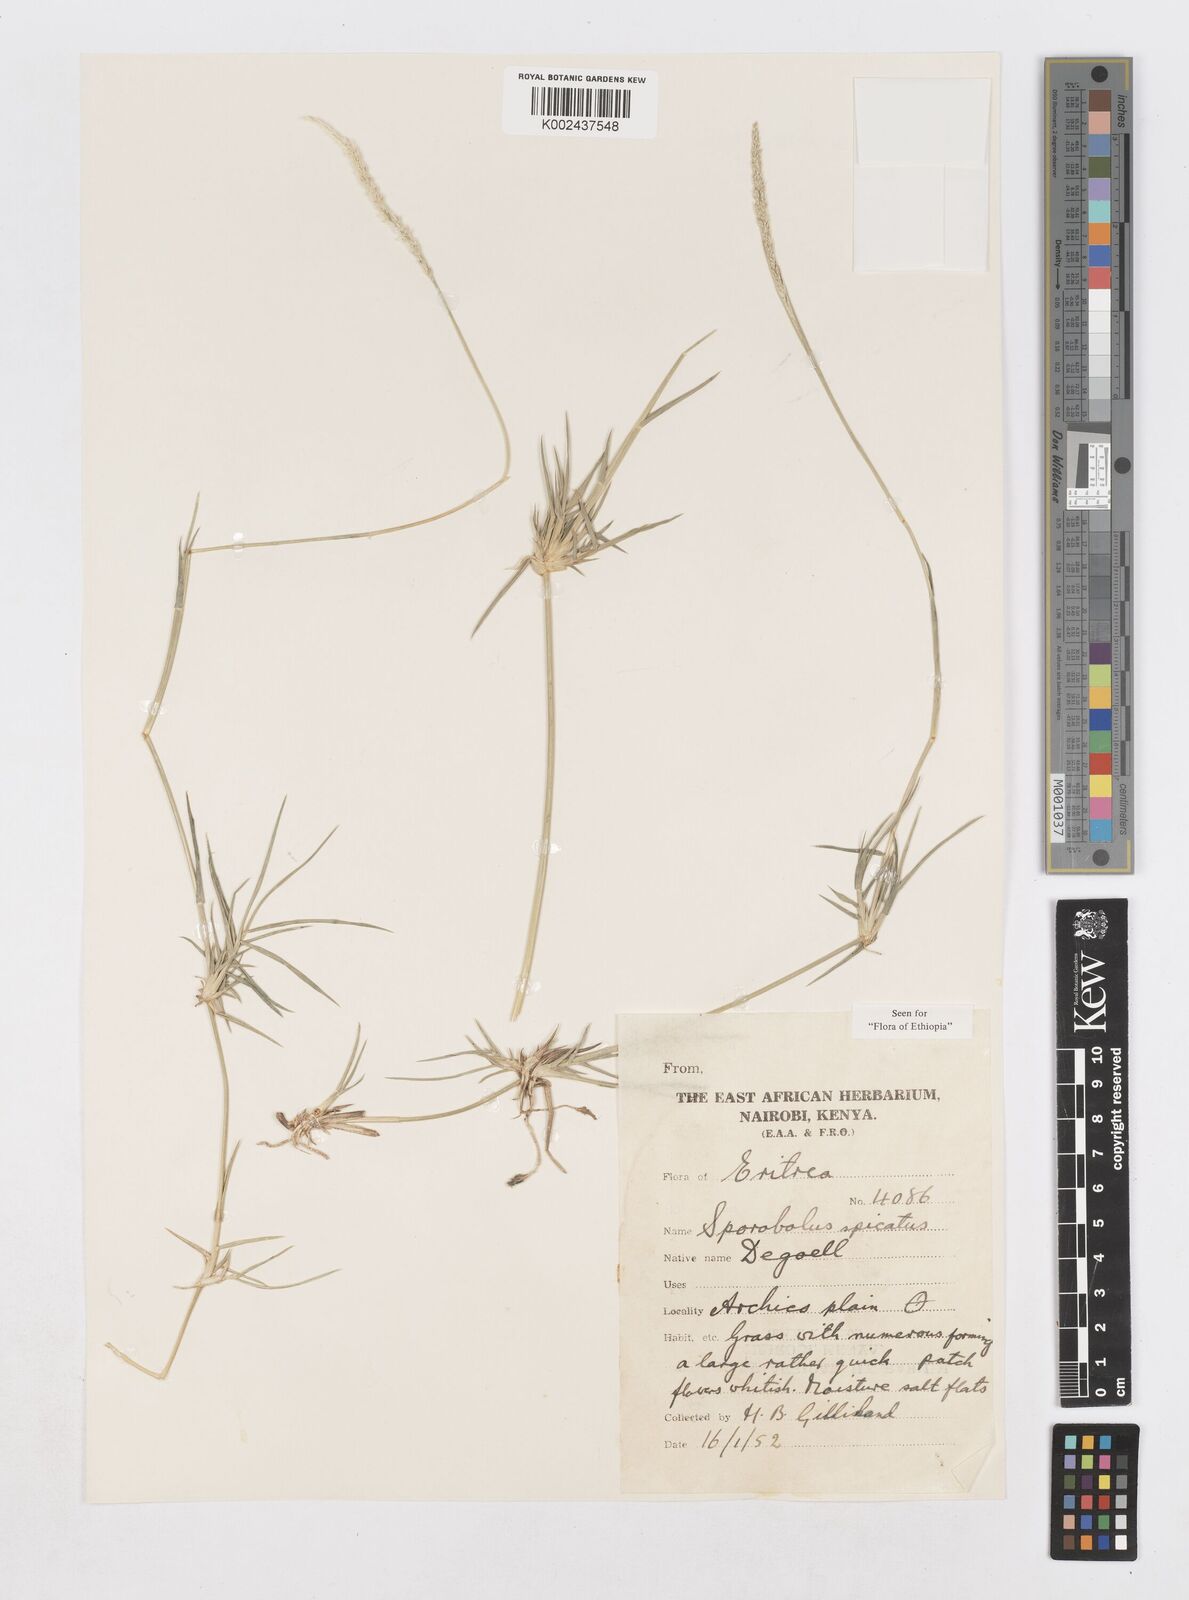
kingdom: Plantae
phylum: Tracheophyta
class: Liliopsida
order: Poales
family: Poaceae
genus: Sporobolus
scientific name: Sporobolus spicatus
